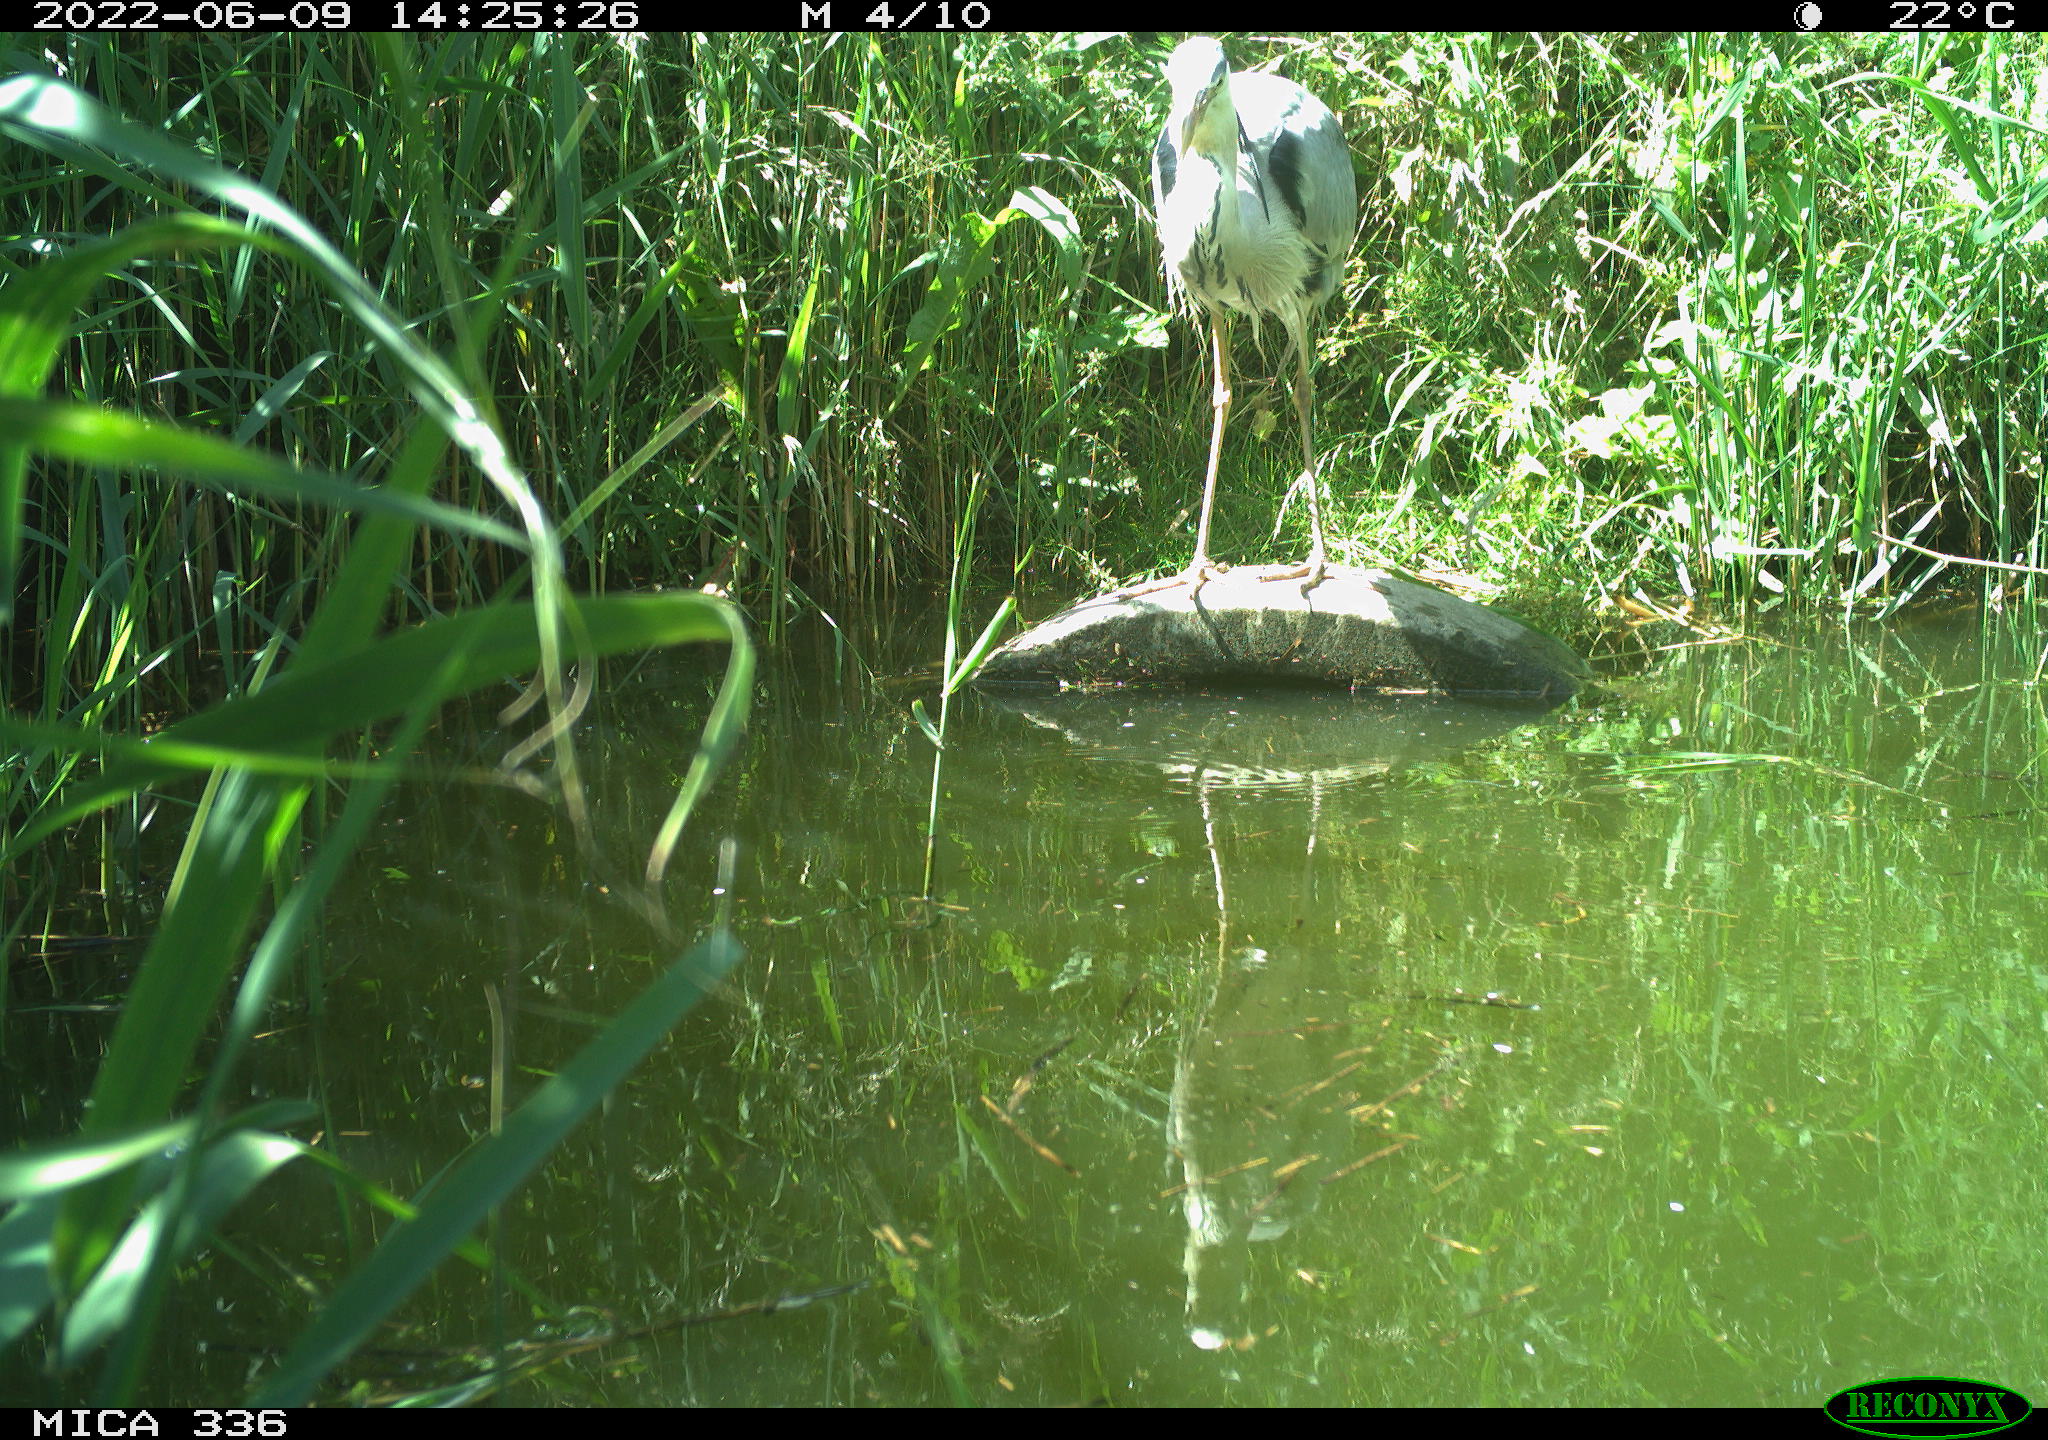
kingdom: Animalia
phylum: Chordata
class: Aves
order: Pelecaniformes
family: Ardeidae
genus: Ardea
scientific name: Ardea cinerea
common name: Grey heron
